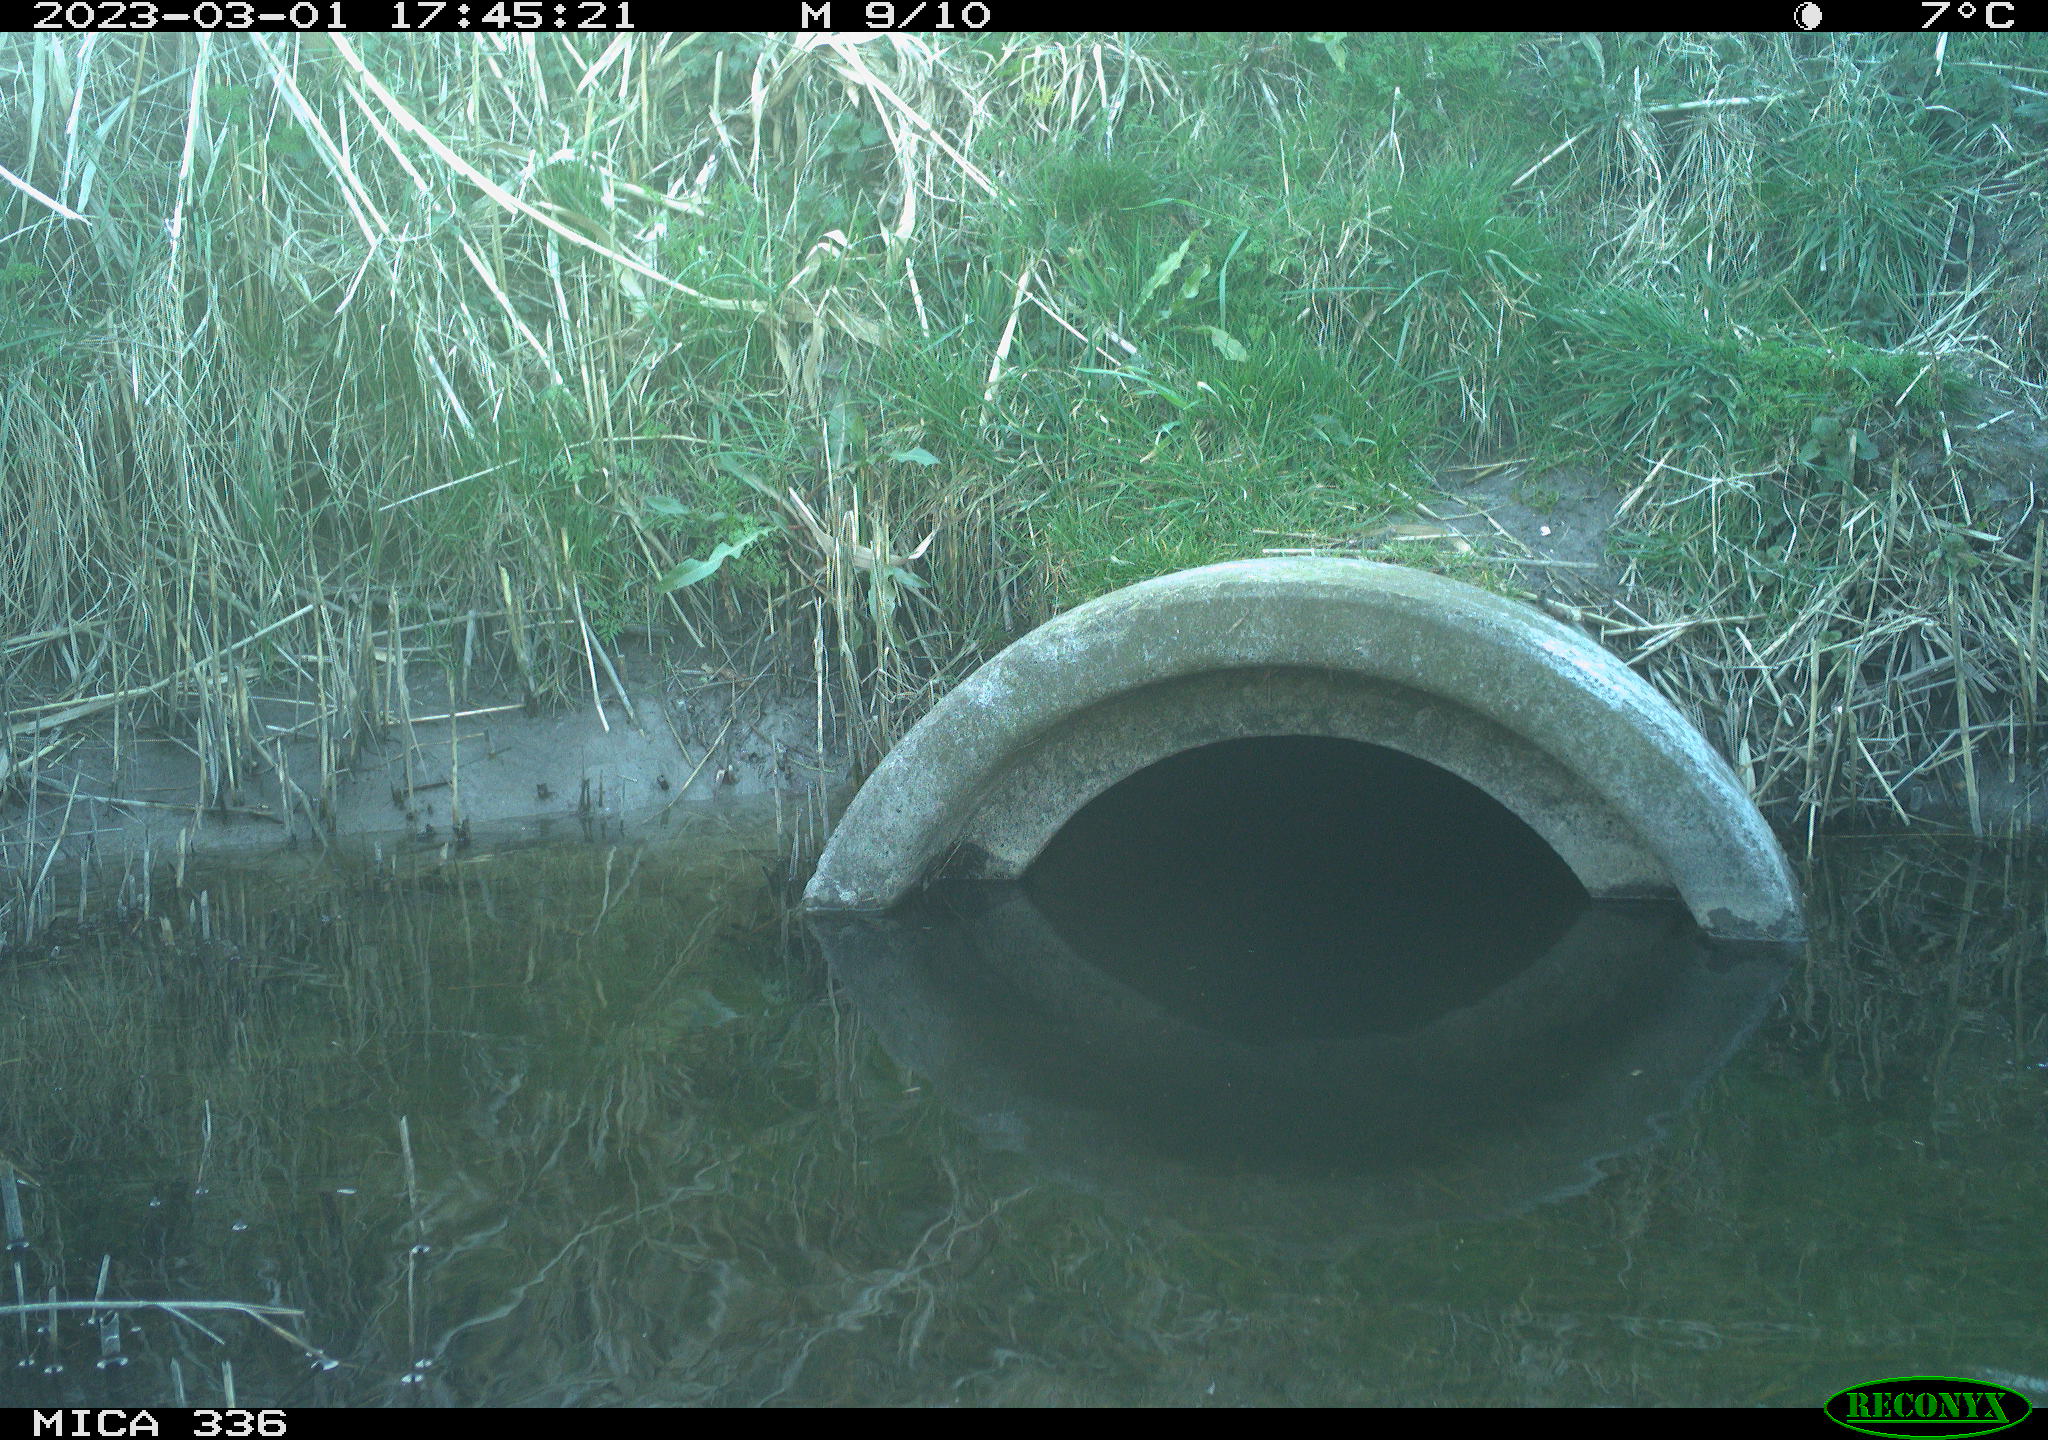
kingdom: Animalia
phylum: Chordata
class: Aves
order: Pelecaniformes
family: Ardeidae
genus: Ardea
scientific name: Ardea cinerea
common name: Grey heron
